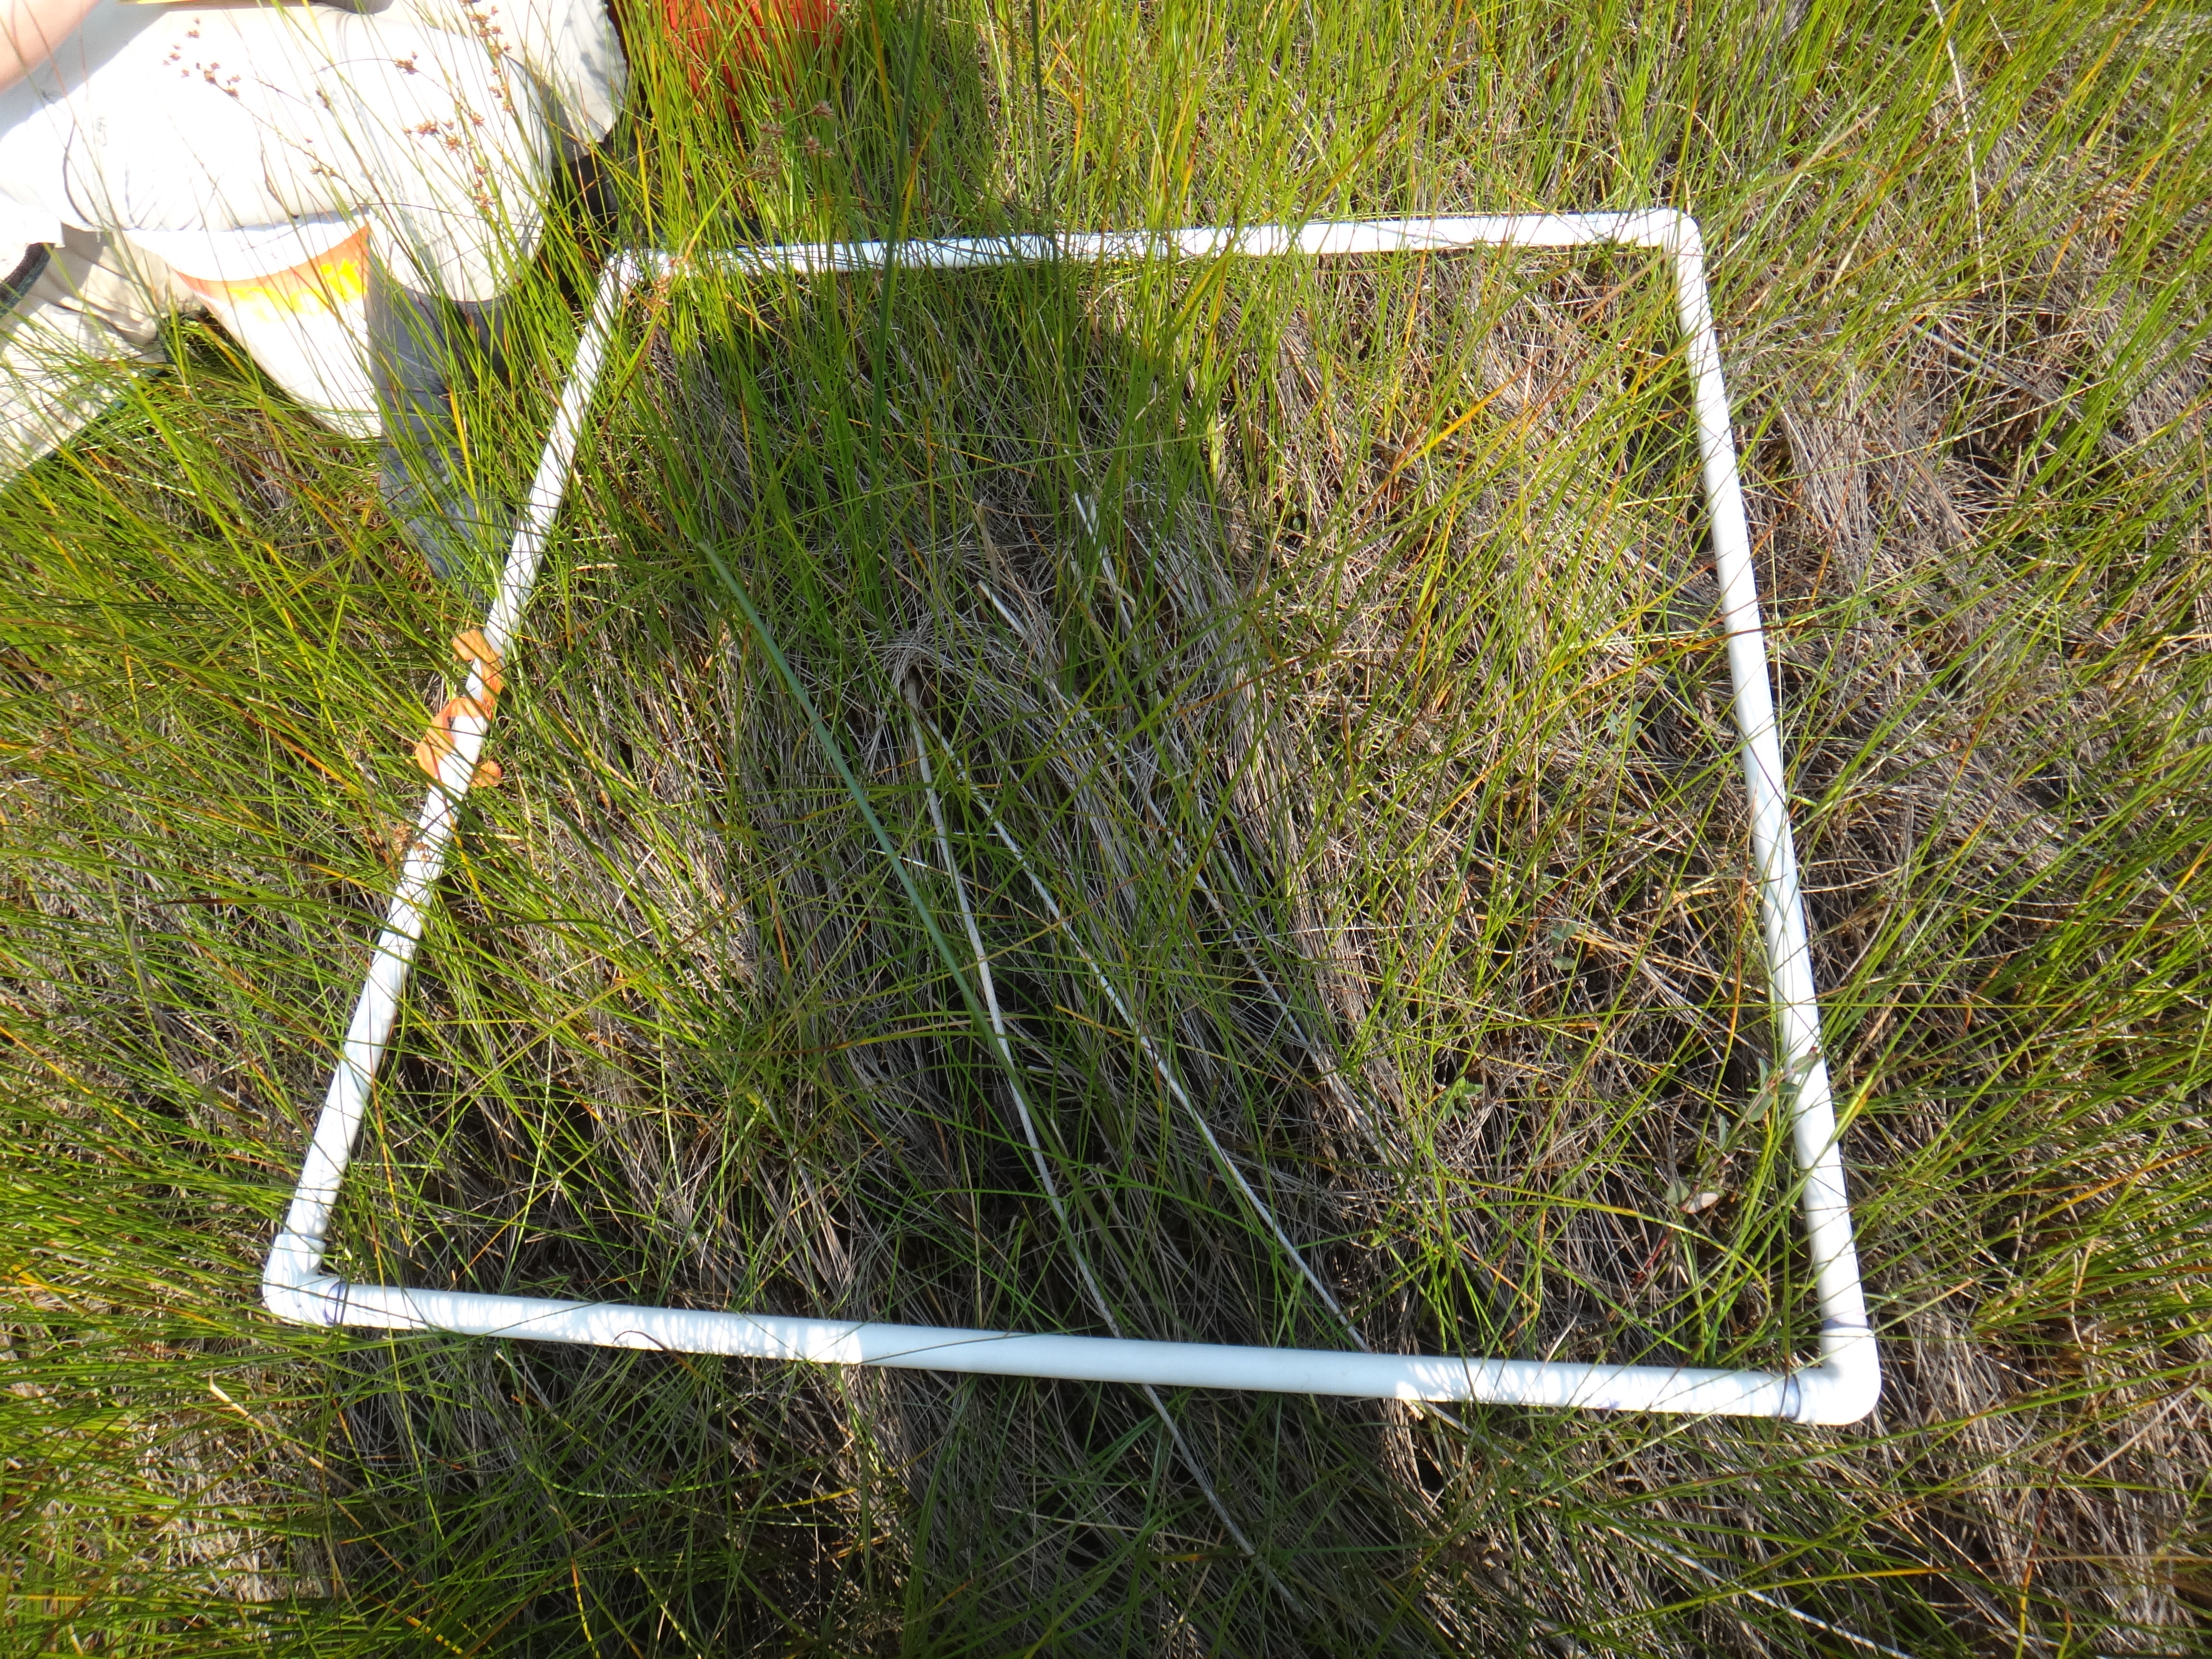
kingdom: Plantae
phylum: Tracheophyta
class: Liliopsida
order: Poales
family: Cyperaceae
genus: Schoenoplectus
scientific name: Schoenoplectus tabernaemontani
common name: Grey club-rush
